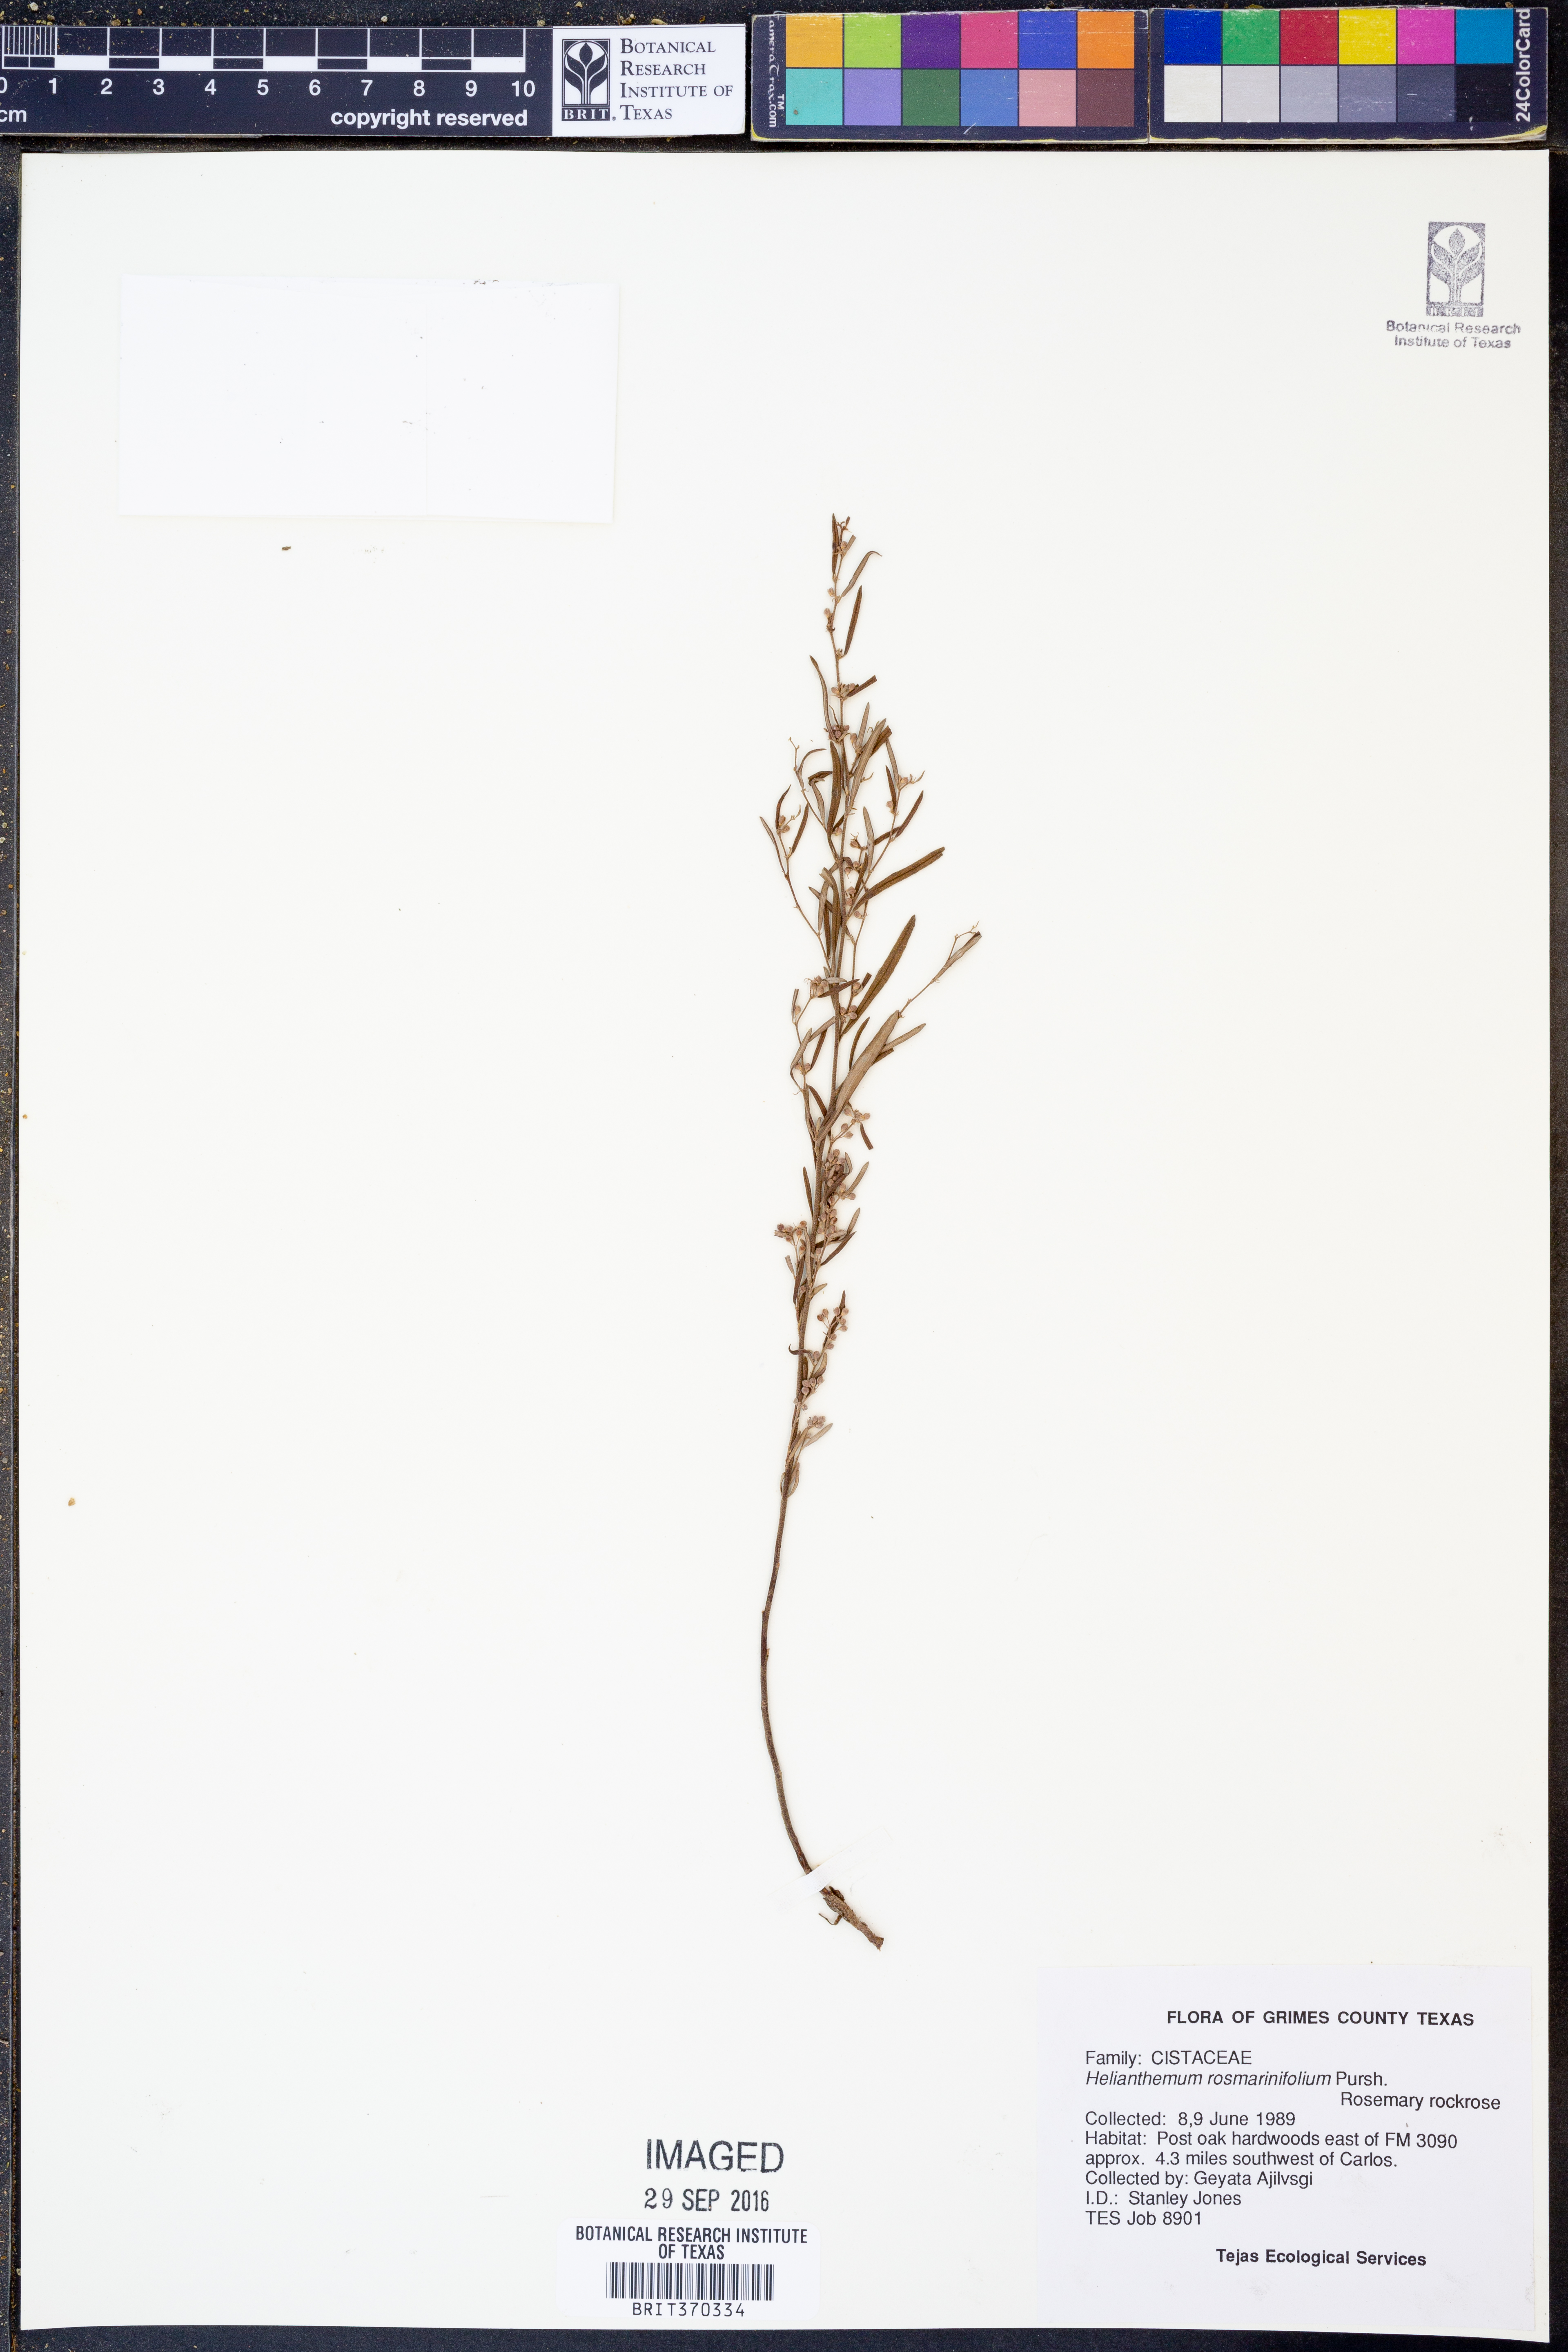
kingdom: Plantae
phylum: Tracheophyta
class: Magnoliopsida
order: Malvales
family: Cistaceae
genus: Crocanthemum
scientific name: Crocanthemum rosmarinifolium
